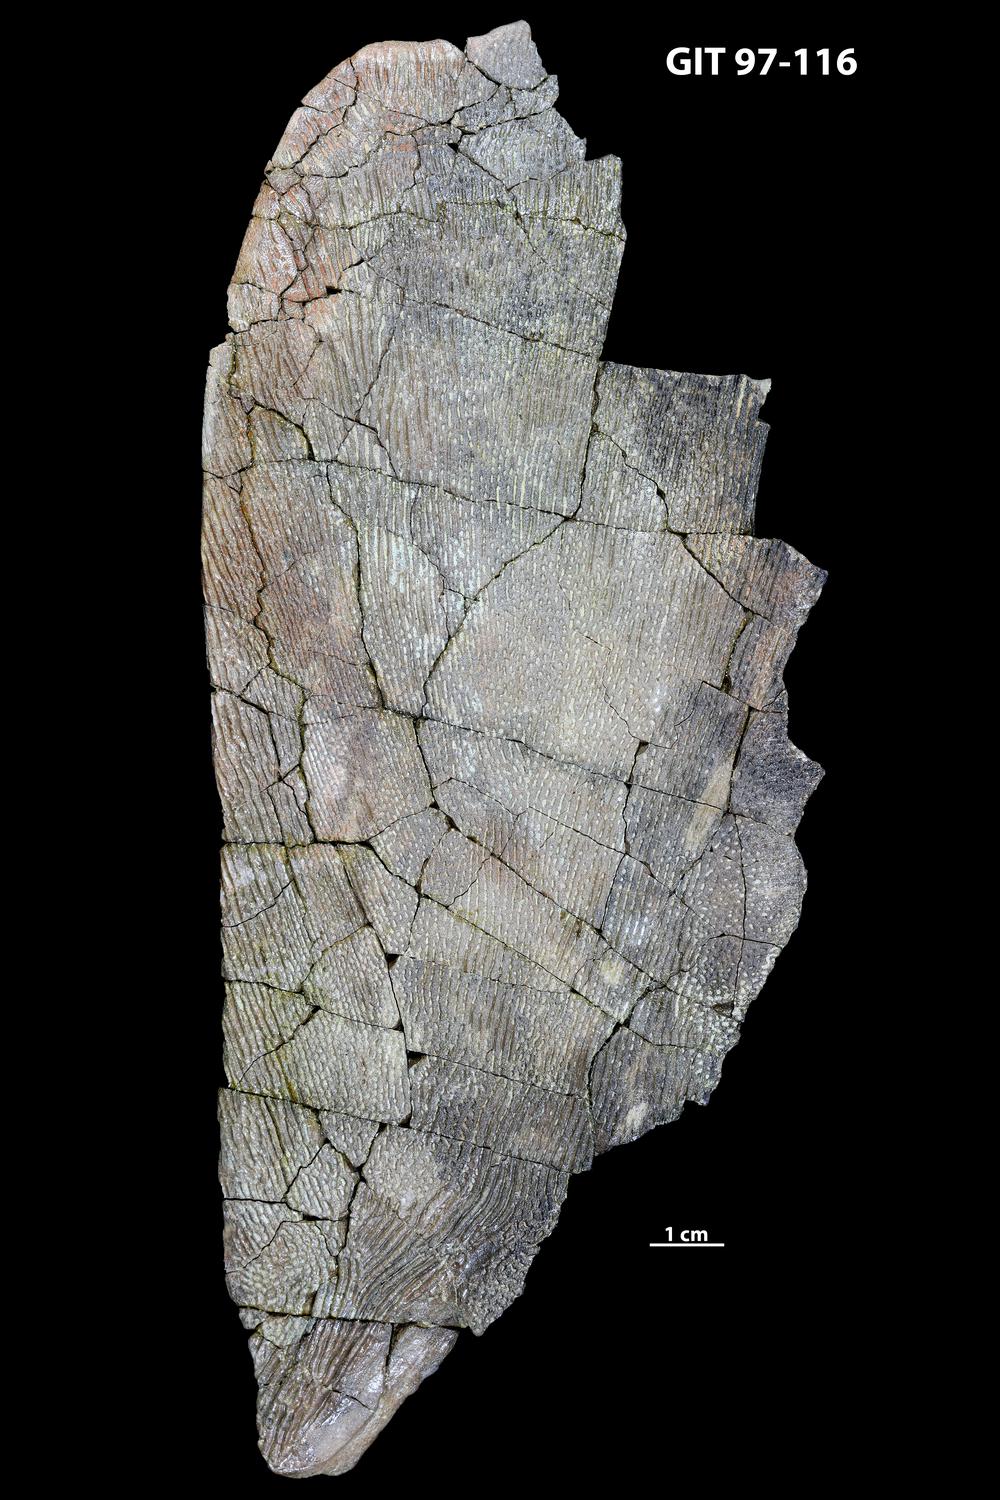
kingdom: Animalia
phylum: Chordata
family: Holonematidae
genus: Holonema
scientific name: Holonema
